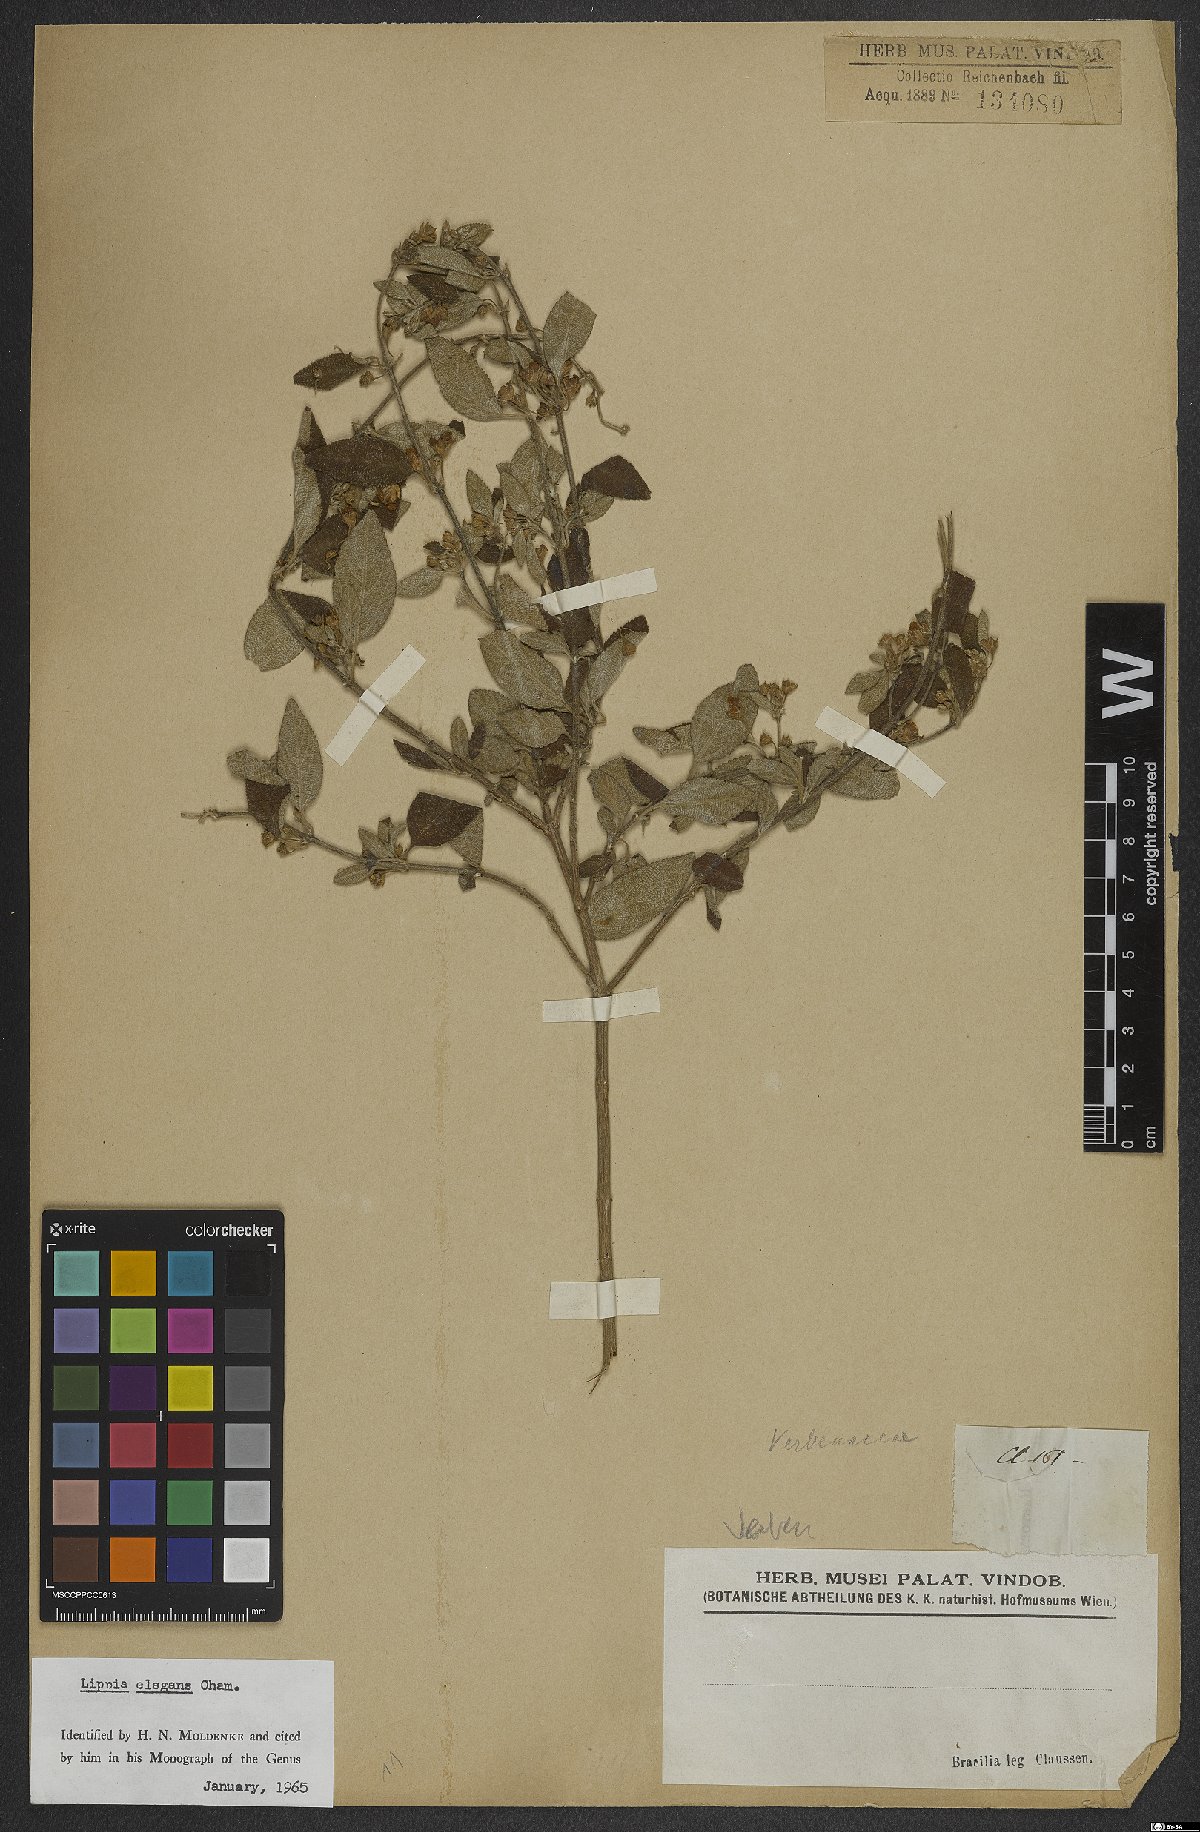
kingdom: Plantae
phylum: Tracheophyta
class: Magnoliopsida
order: Lamiales
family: Verbenaceae
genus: Lippia
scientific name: Lippia origanoides
